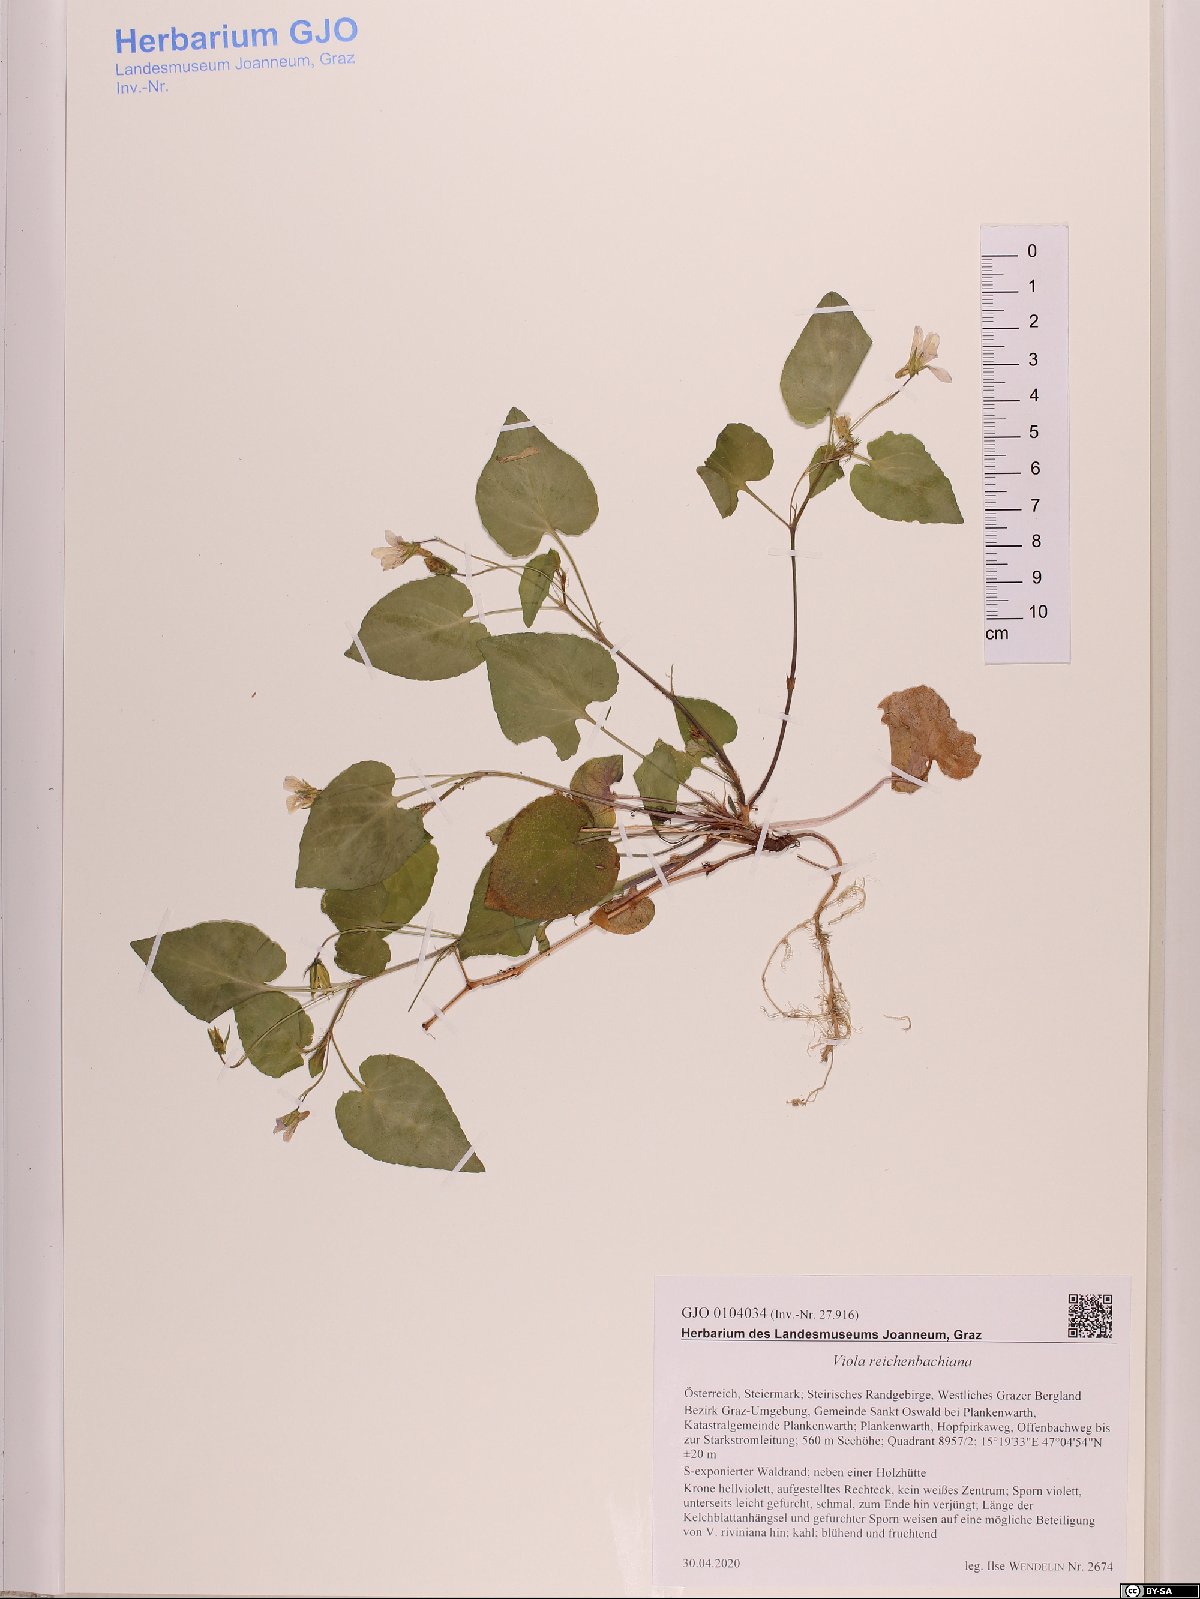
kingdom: Plantae
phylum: Tracheophyta
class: Magnoliopsida
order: Malpighiales
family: Violaceae
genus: Viola
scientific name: Viola reichenbachiana
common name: Early dog-violet
